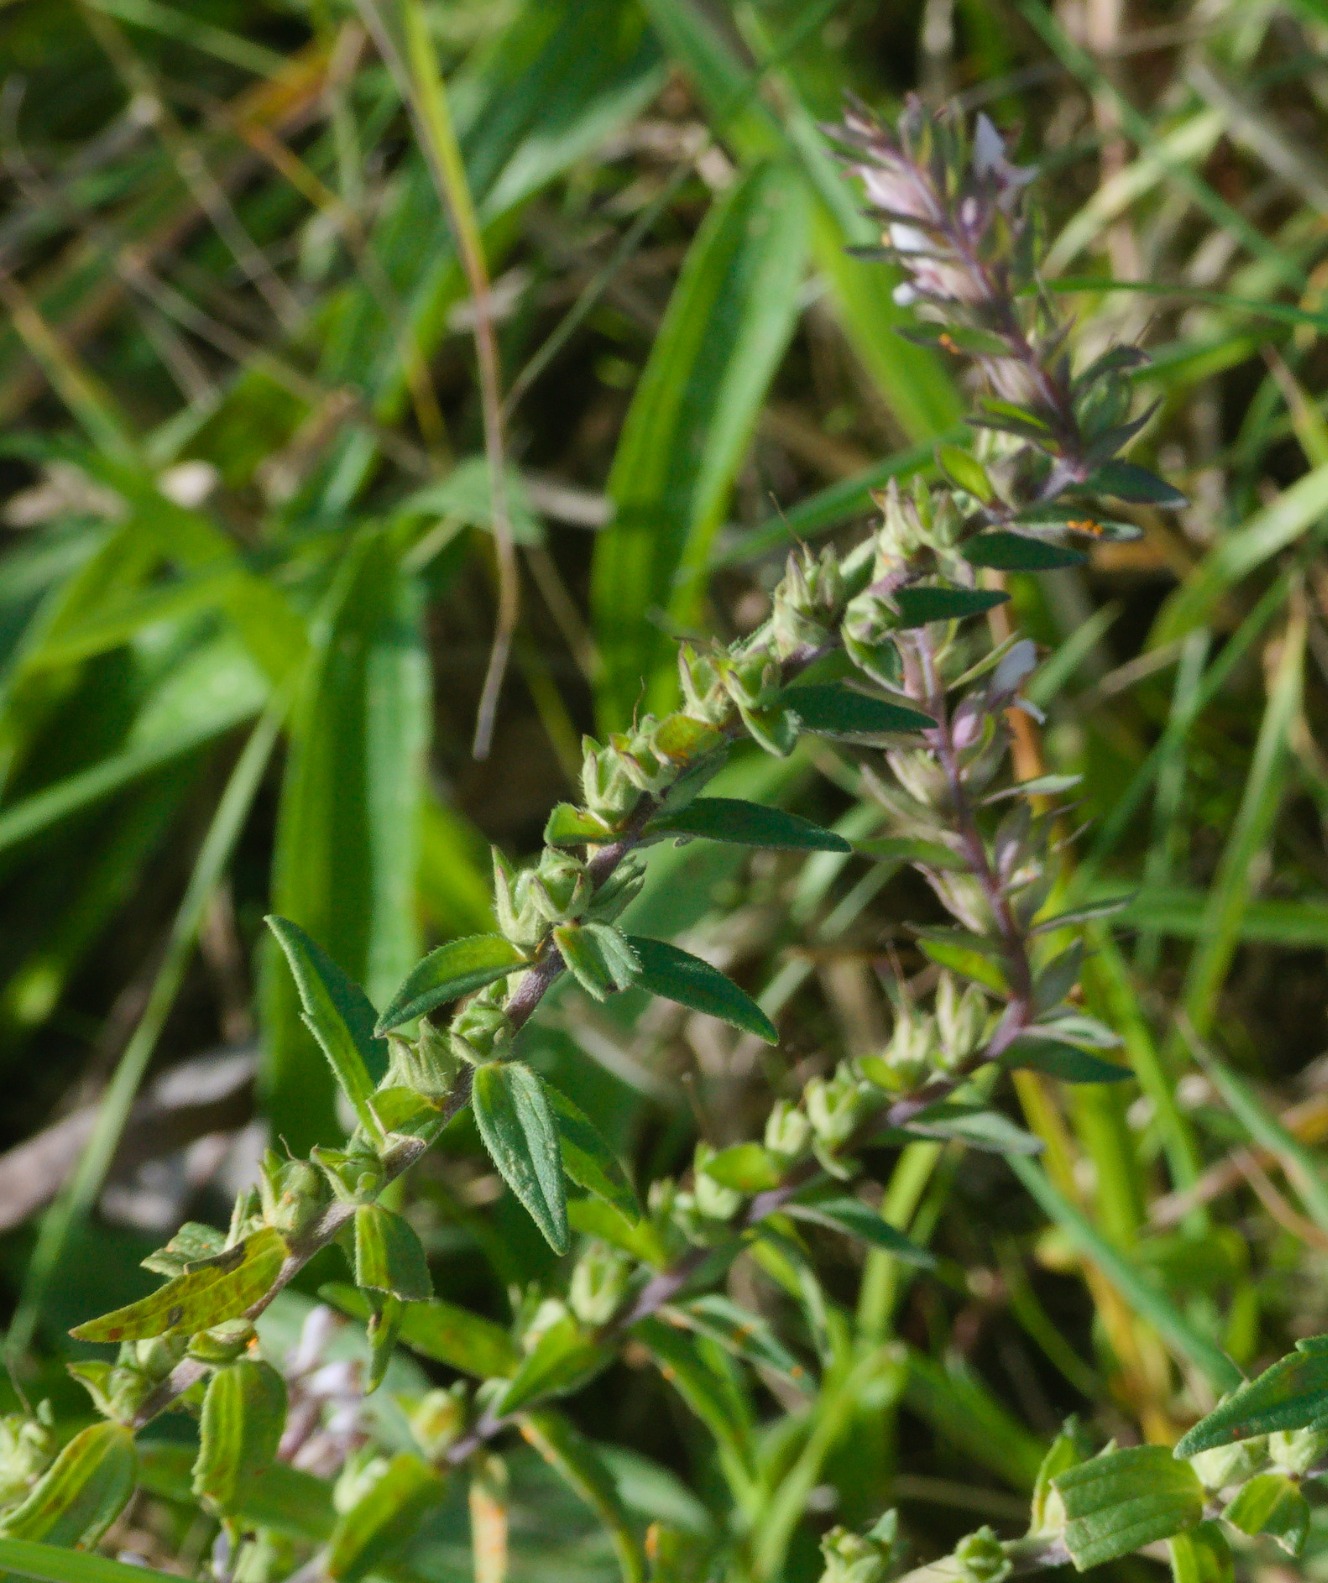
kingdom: Plantae
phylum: Tracheophyta
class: Magnoliopsida
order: Lamiales
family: Orobanchaceae
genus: Odontites
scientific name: Odontites vulgaris
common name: Høst-rødtop
